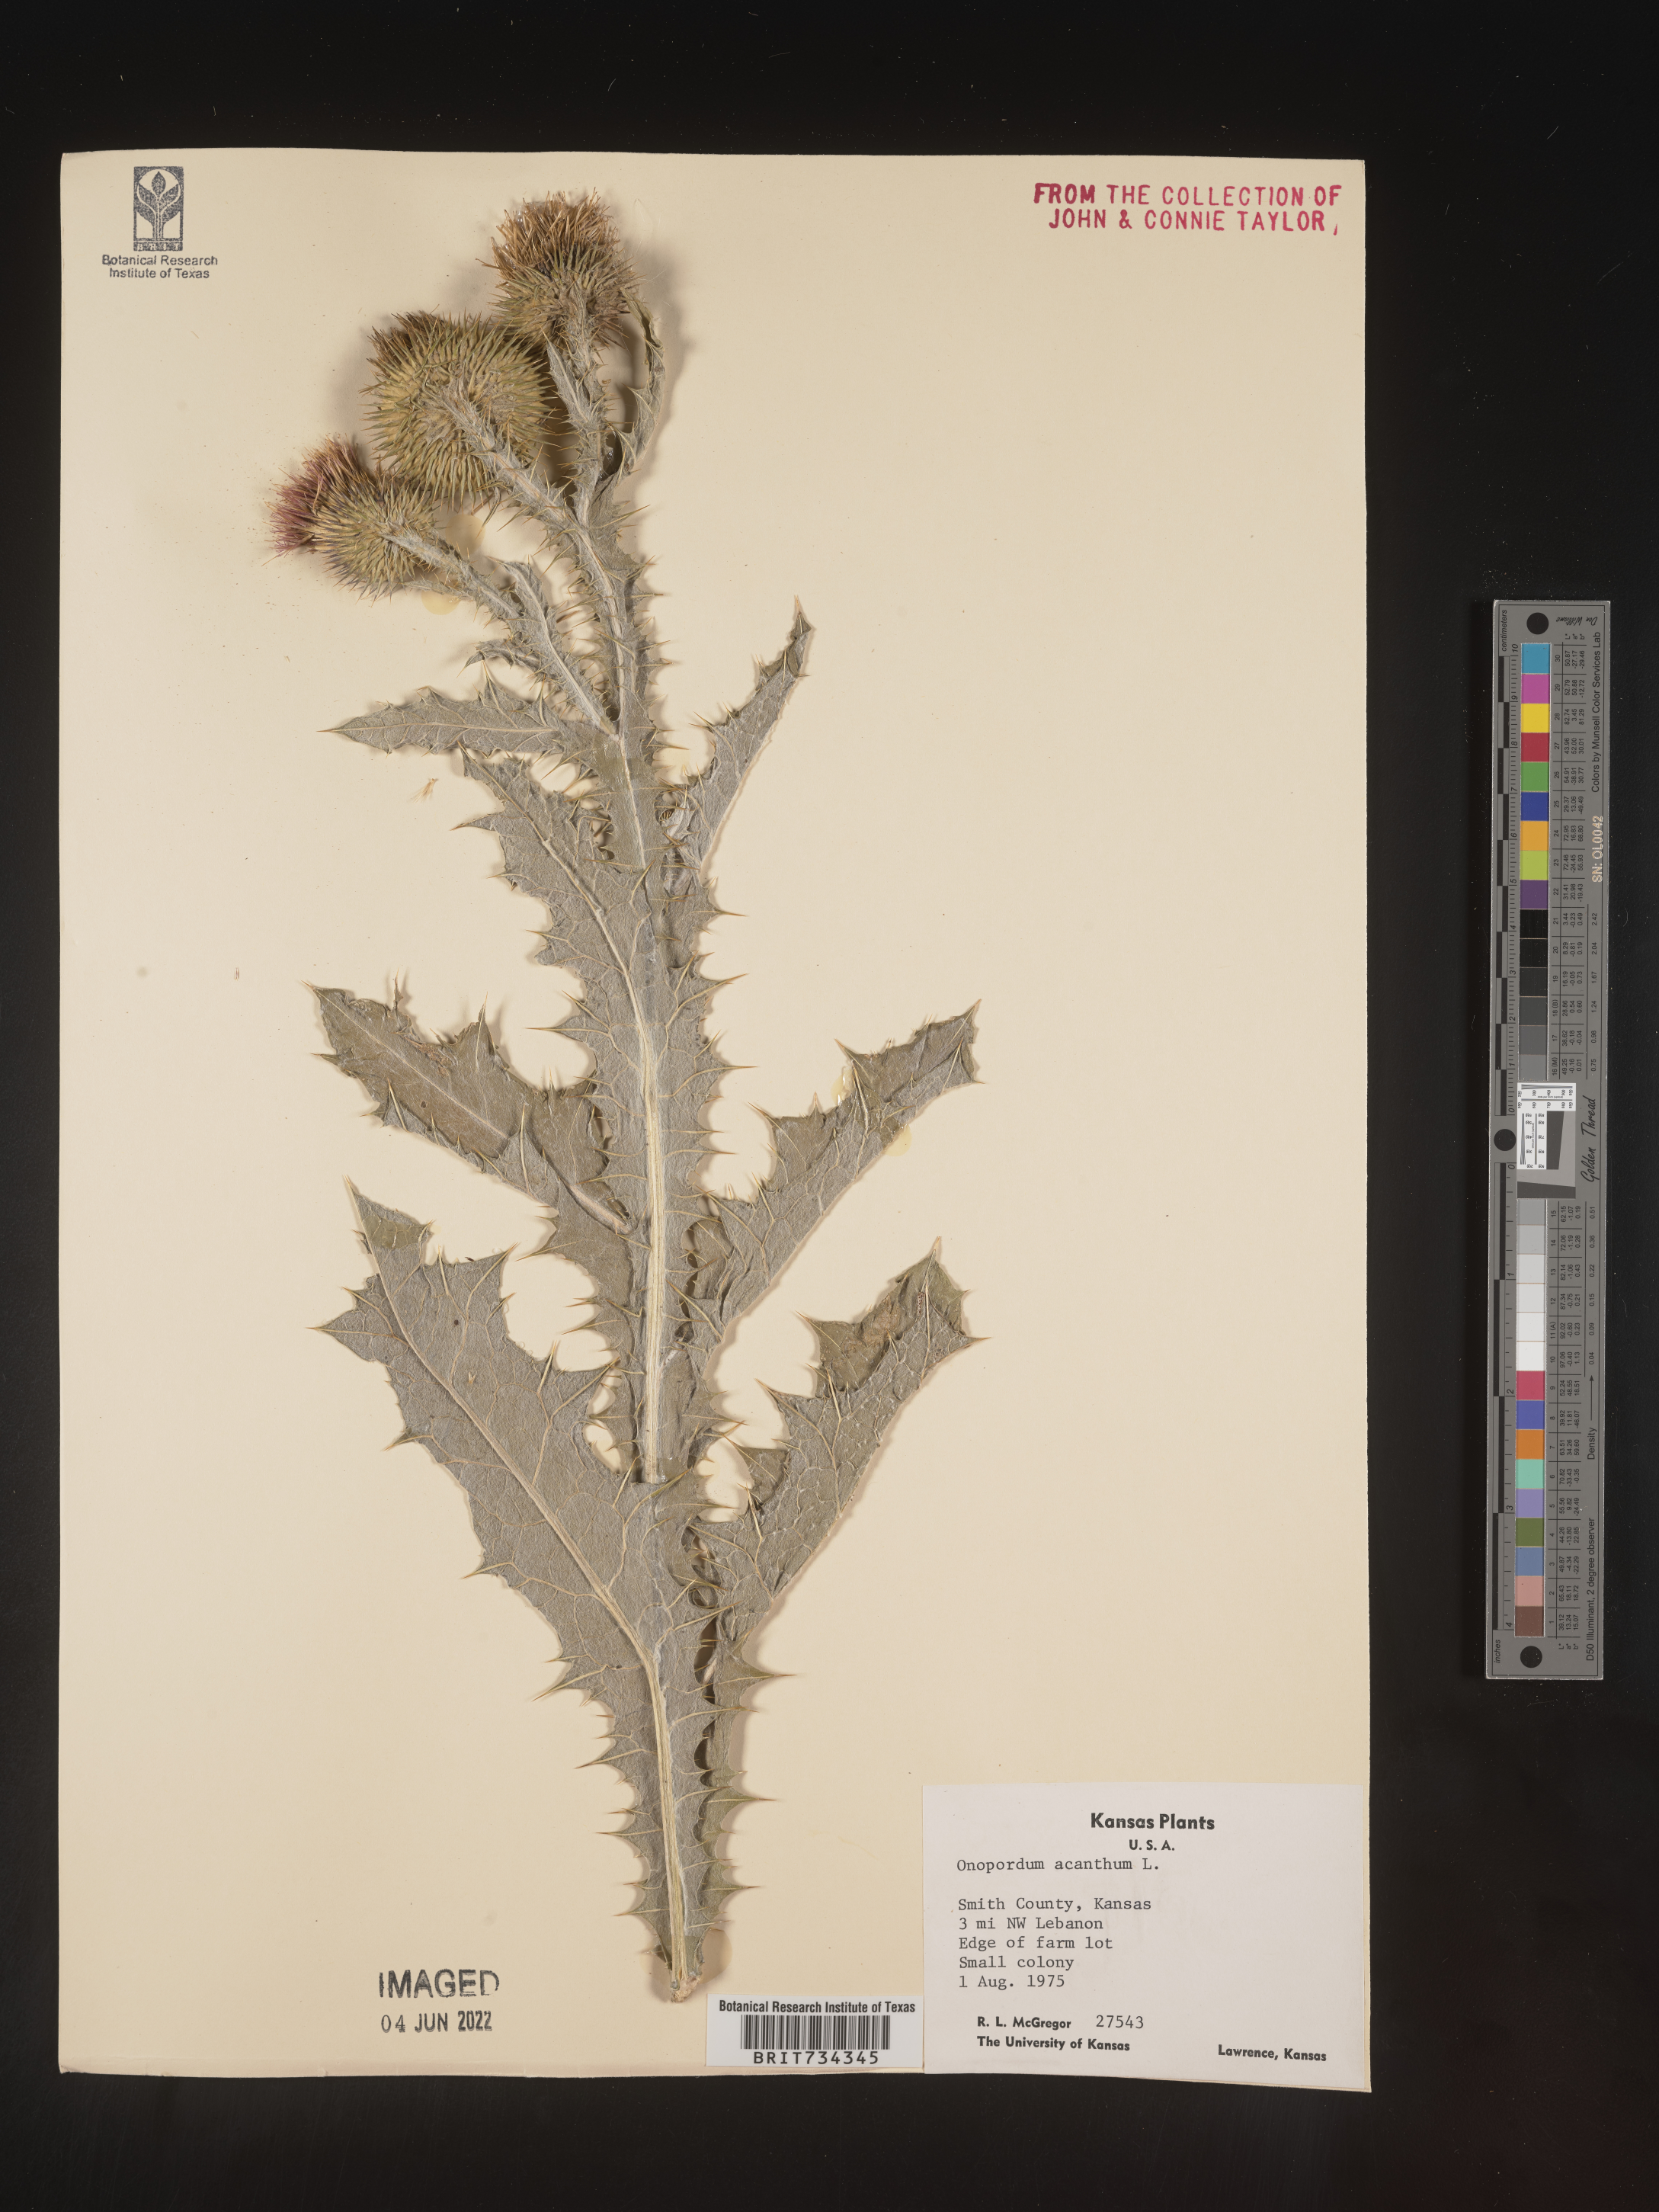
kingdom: Plantae
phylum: Tracheophyta
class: Magnoliopsida
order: Asterales
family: Asteraceae
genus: Onopordum
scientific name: Onopordum acanthium
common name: Scotch thistle
